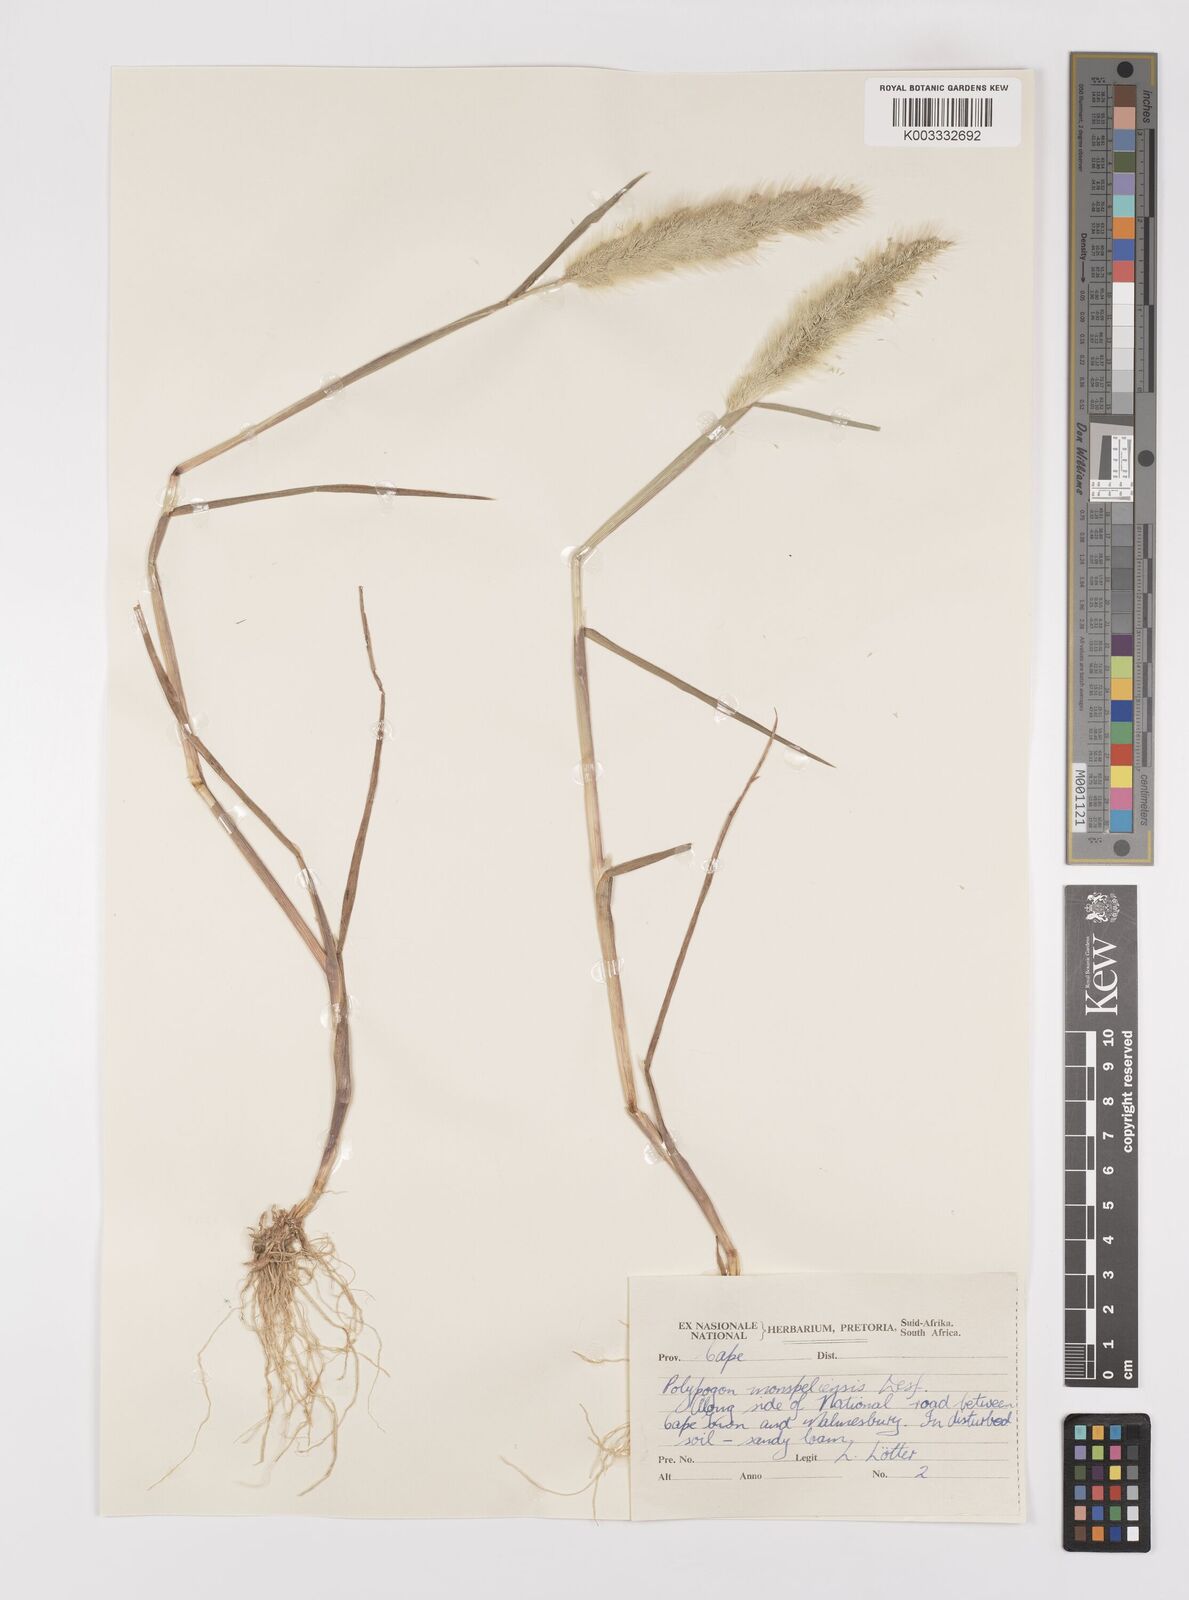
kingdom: Plantae
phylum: Tracheophyta
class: Liliopsida
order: Poales
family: Poaceae
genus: Polypogon
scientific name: Polypogon monspeliensis
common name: Annual rabbitsfoot grass
